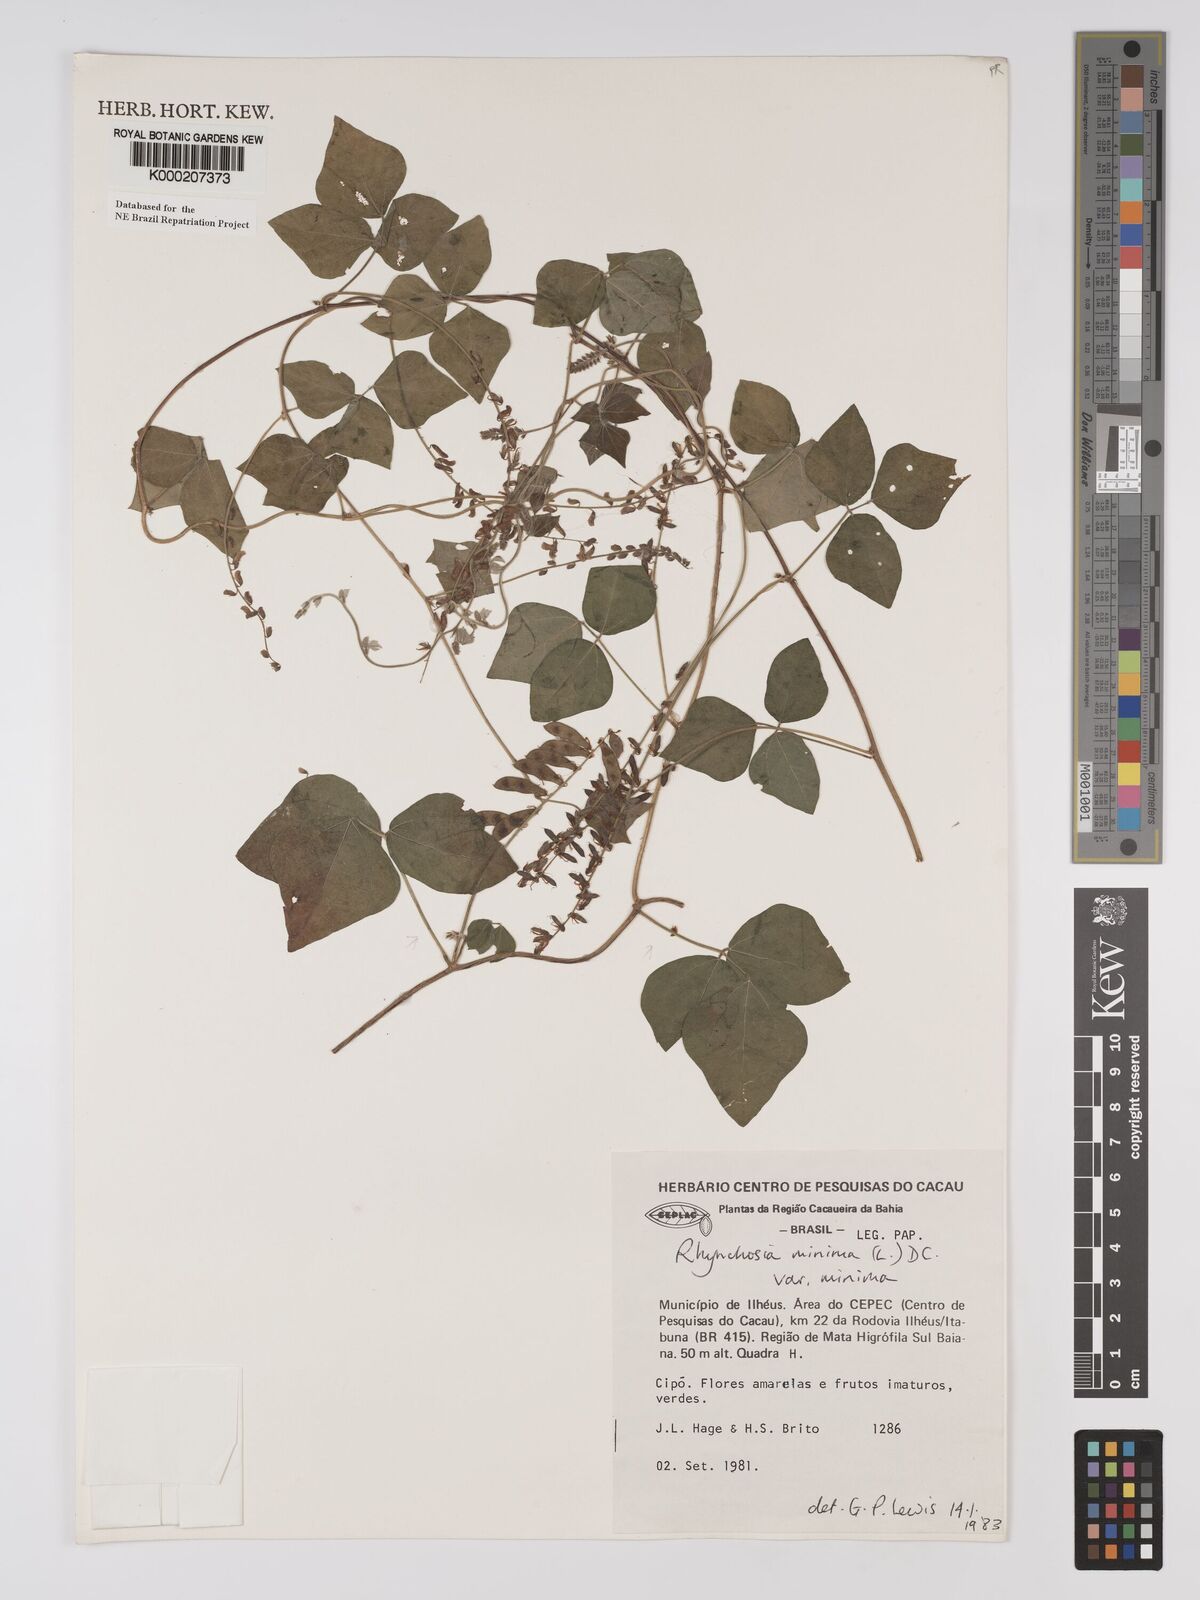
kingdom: Plantae
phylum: Tracheophyta
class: Magnoliopsida
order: Fabales
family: Fabaceae
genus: Rhynchosia
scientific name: Rhynchosia minima
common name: Least snoutbean
